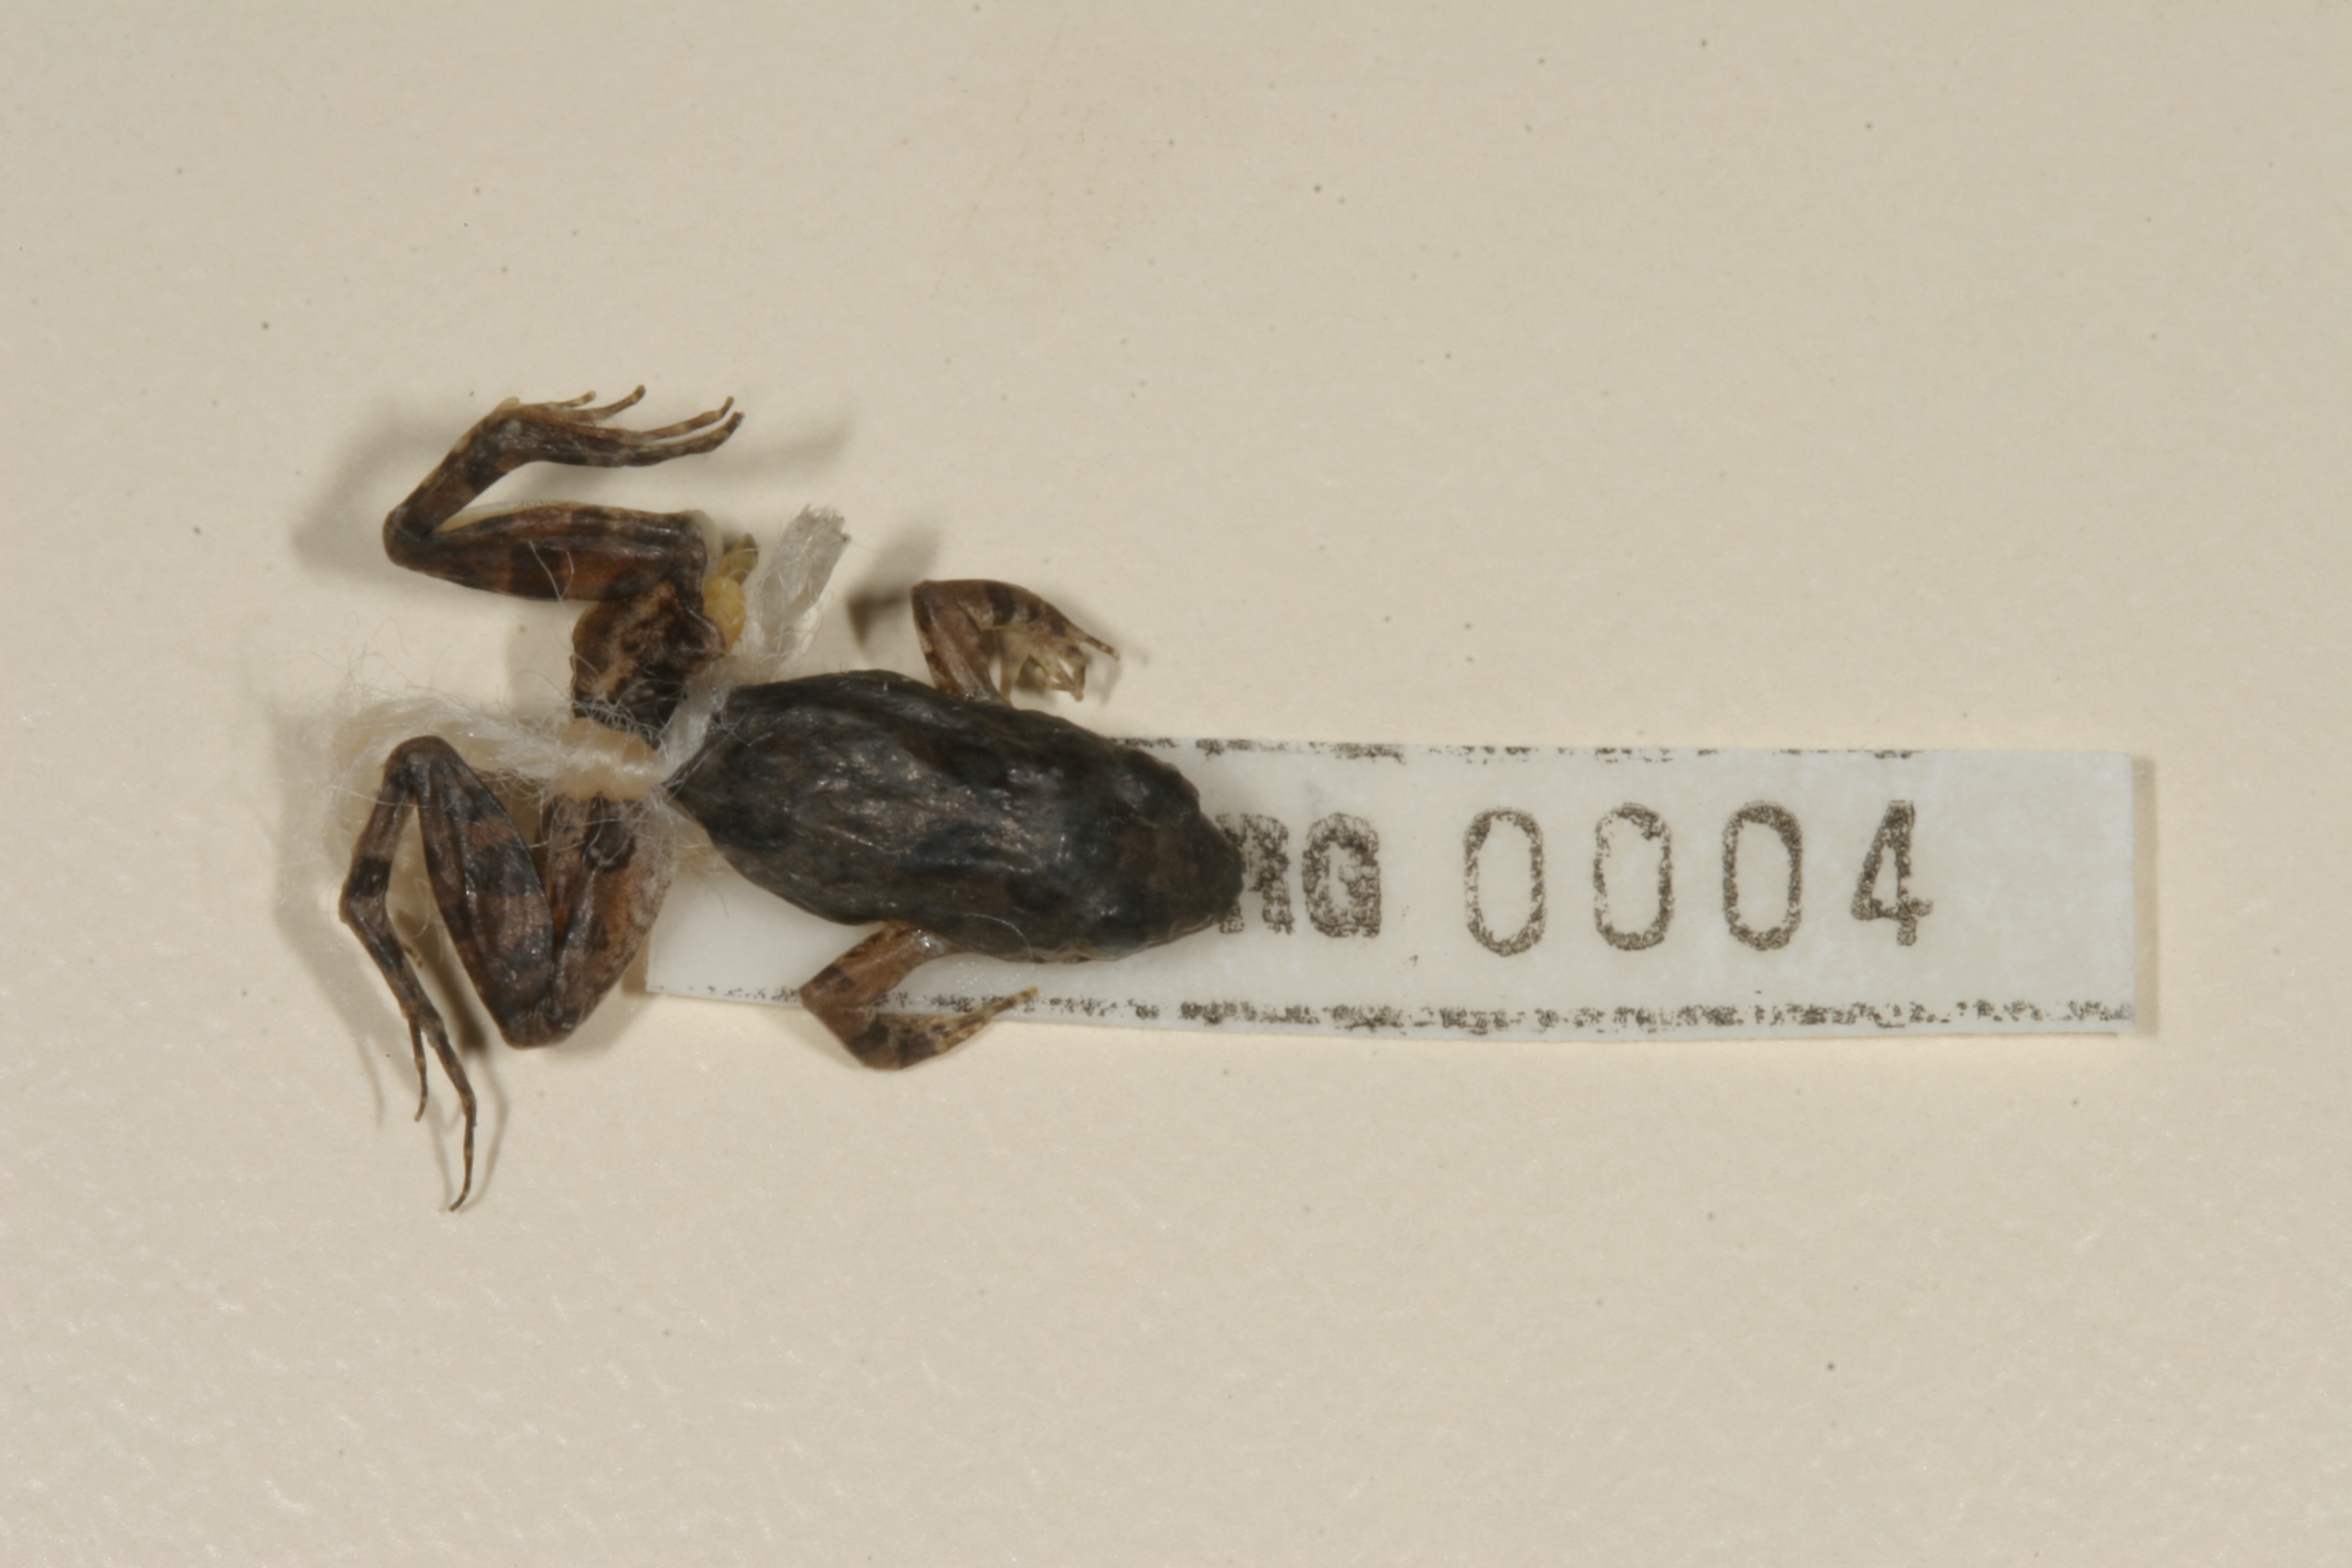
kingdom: Animalia
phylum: Chordata
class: Amphibia
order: Anura
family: Phrynobatrachidae
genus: Phrynobatrachus
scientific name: Phrynobatrachus natalensis
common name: Snoring puddle frog
